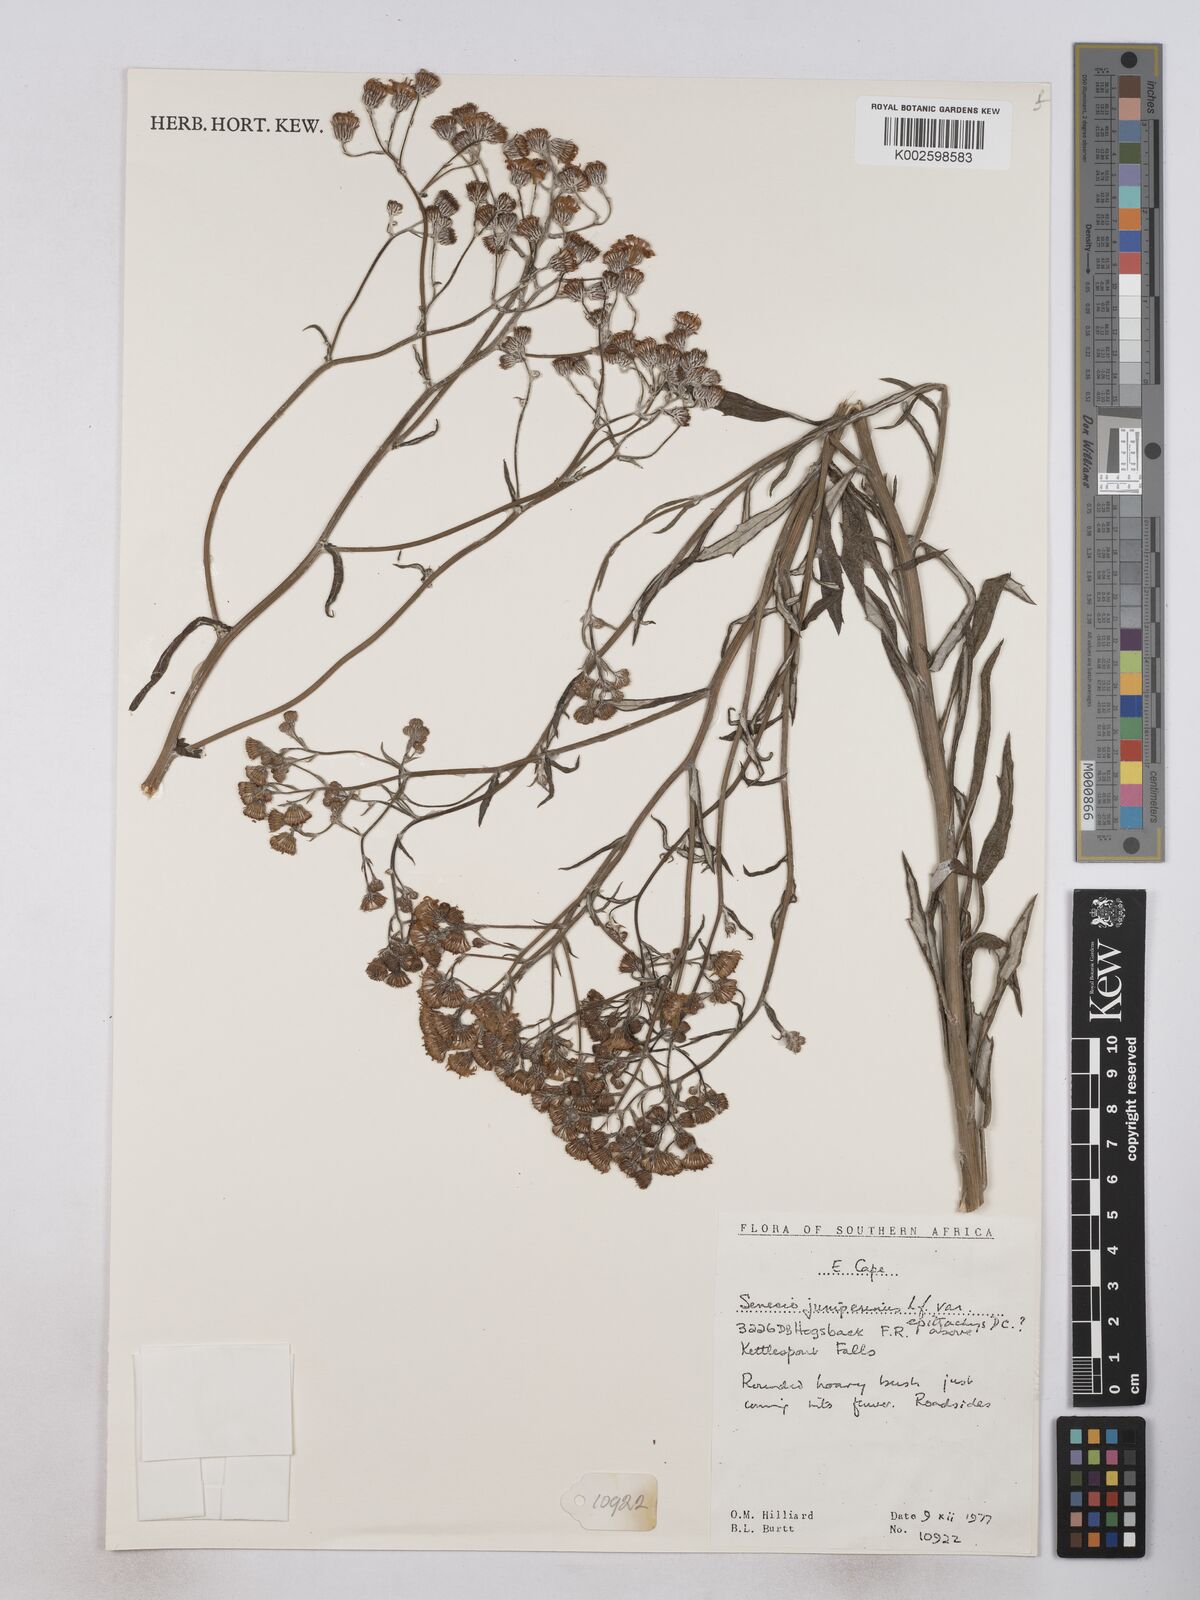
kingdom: Plantae
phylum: Tracheophyta
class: Magnoliopsida
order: Asterales
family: Asteraceae
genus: Senecio
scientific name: Senecio juniperinus
